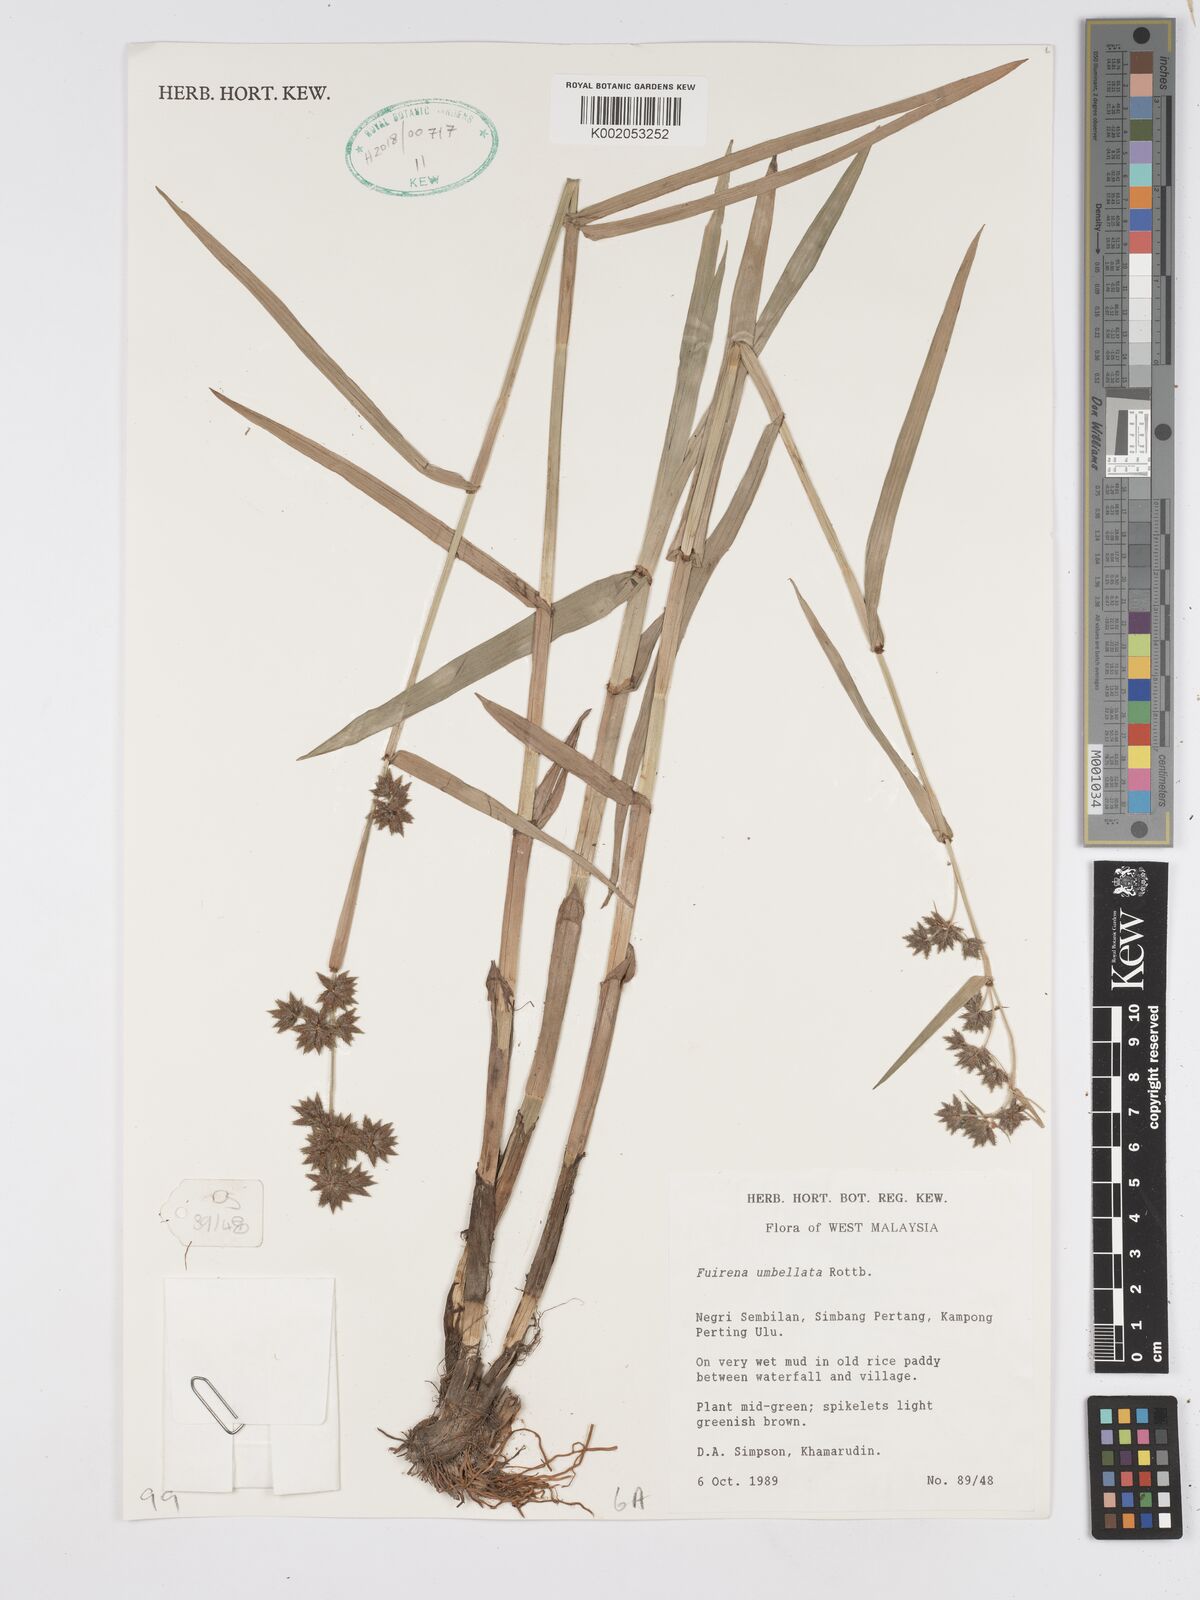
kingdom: Plantae
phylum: Tracheophyta
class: Liliopsida
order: Poales
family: Cyperaceae
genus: Fuirena
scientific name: Fuirena ciliaris
